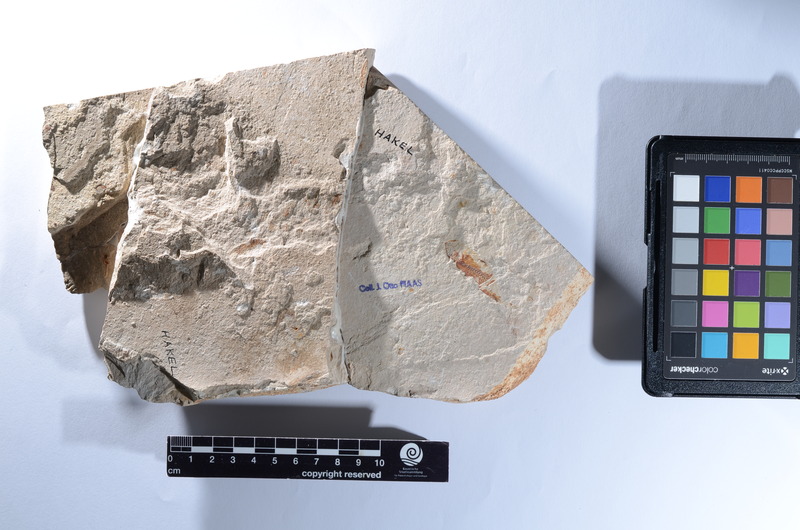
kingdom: Animalia
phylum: Chordata
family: Pycnodontes
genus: Palaeobalistum
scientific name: Palaeobalistum ventralis
